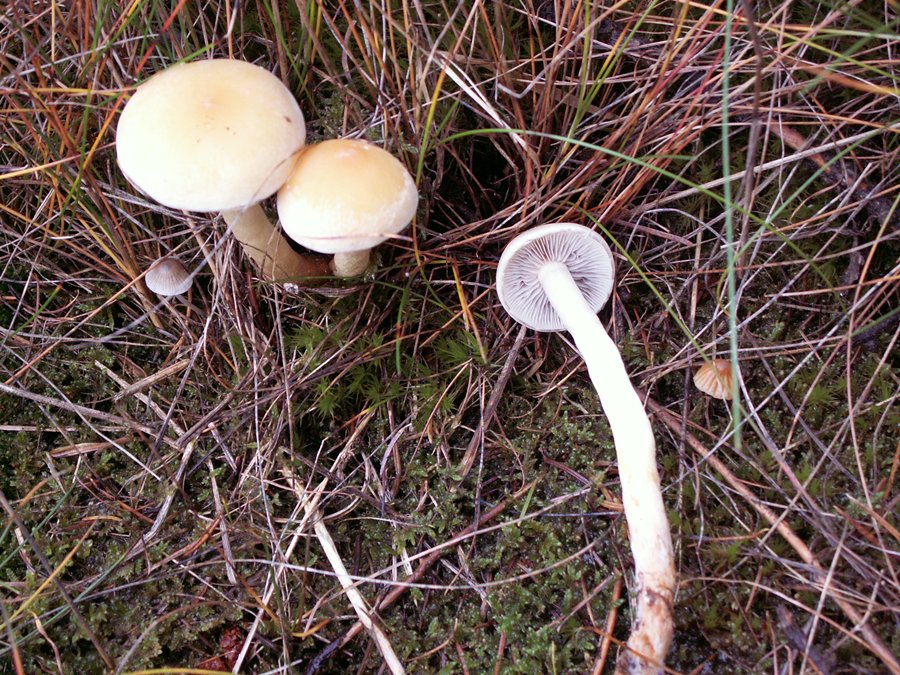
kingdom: Fungi
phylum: Basidiomycota
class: Agaricomycetes
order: Agaricales
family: Strophariaceae
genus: Hypholoma
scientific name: Hypholoma capnoides
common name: gran-svovlhat
